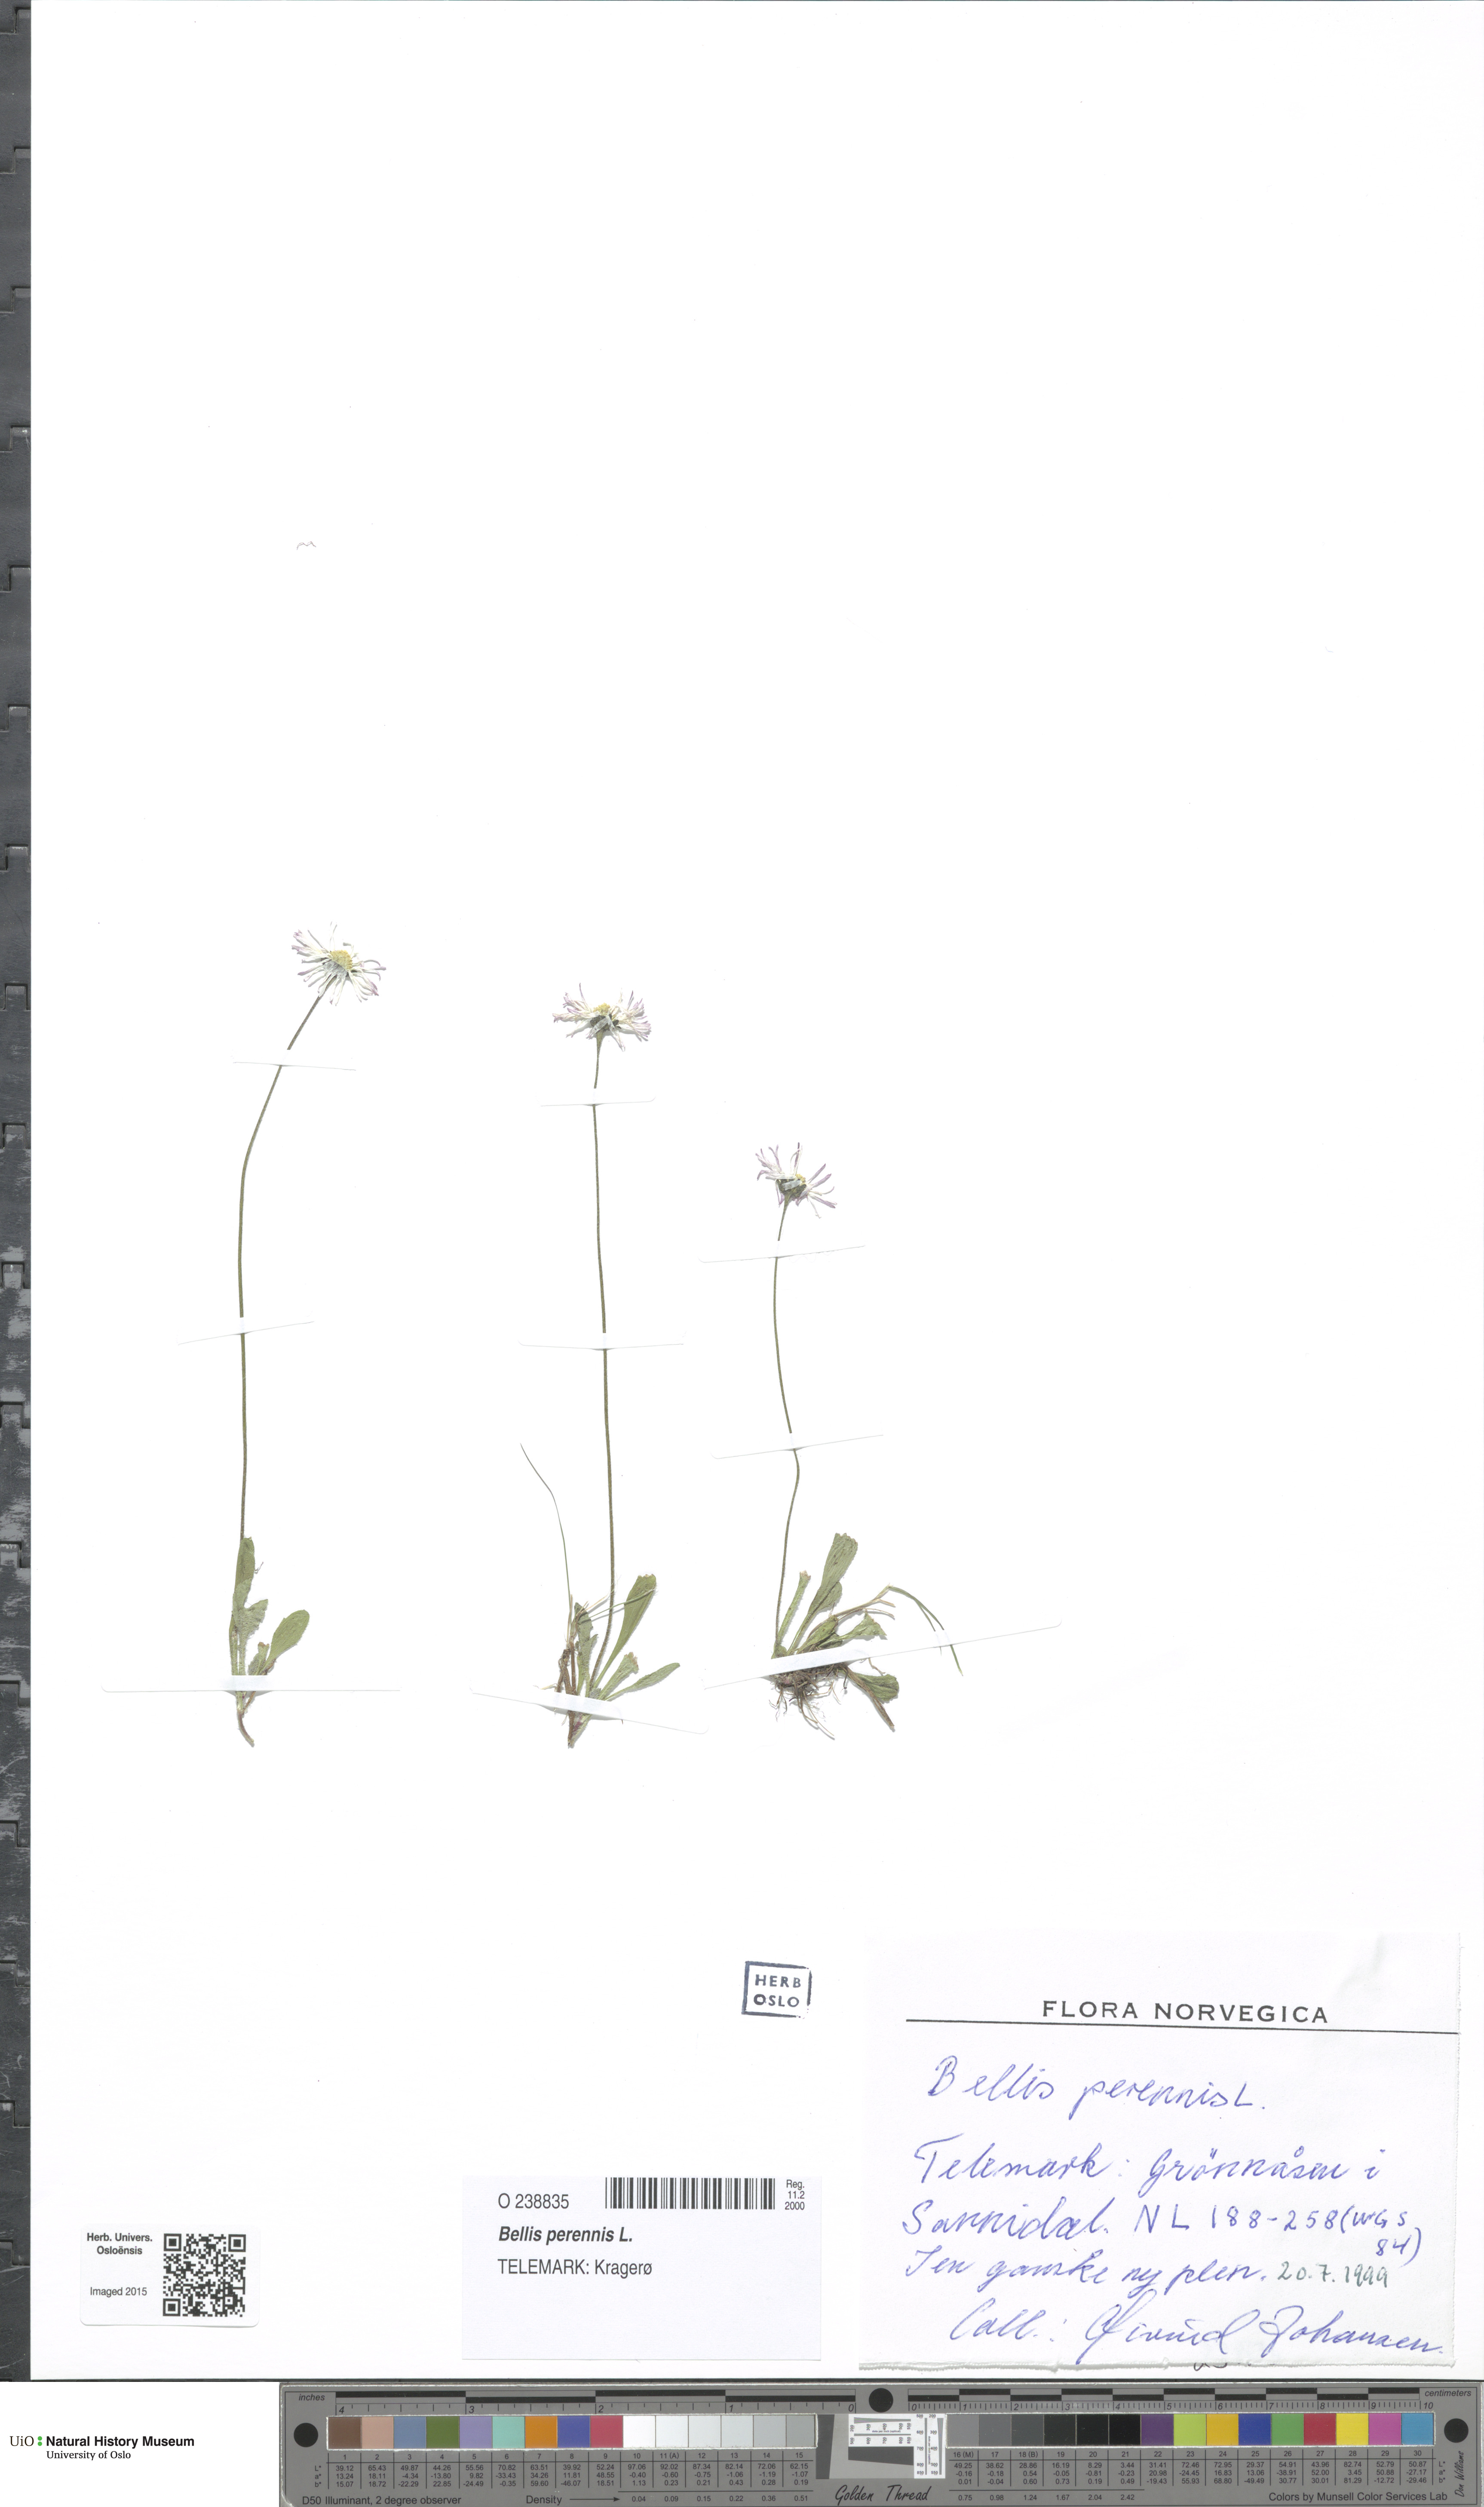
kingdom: Plantae
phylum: Tracheophyta
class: Magnoliopsida
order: Asterales
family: Asteraceae
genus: Bellis
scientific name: Bellis perennis
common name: Lawndaisy
